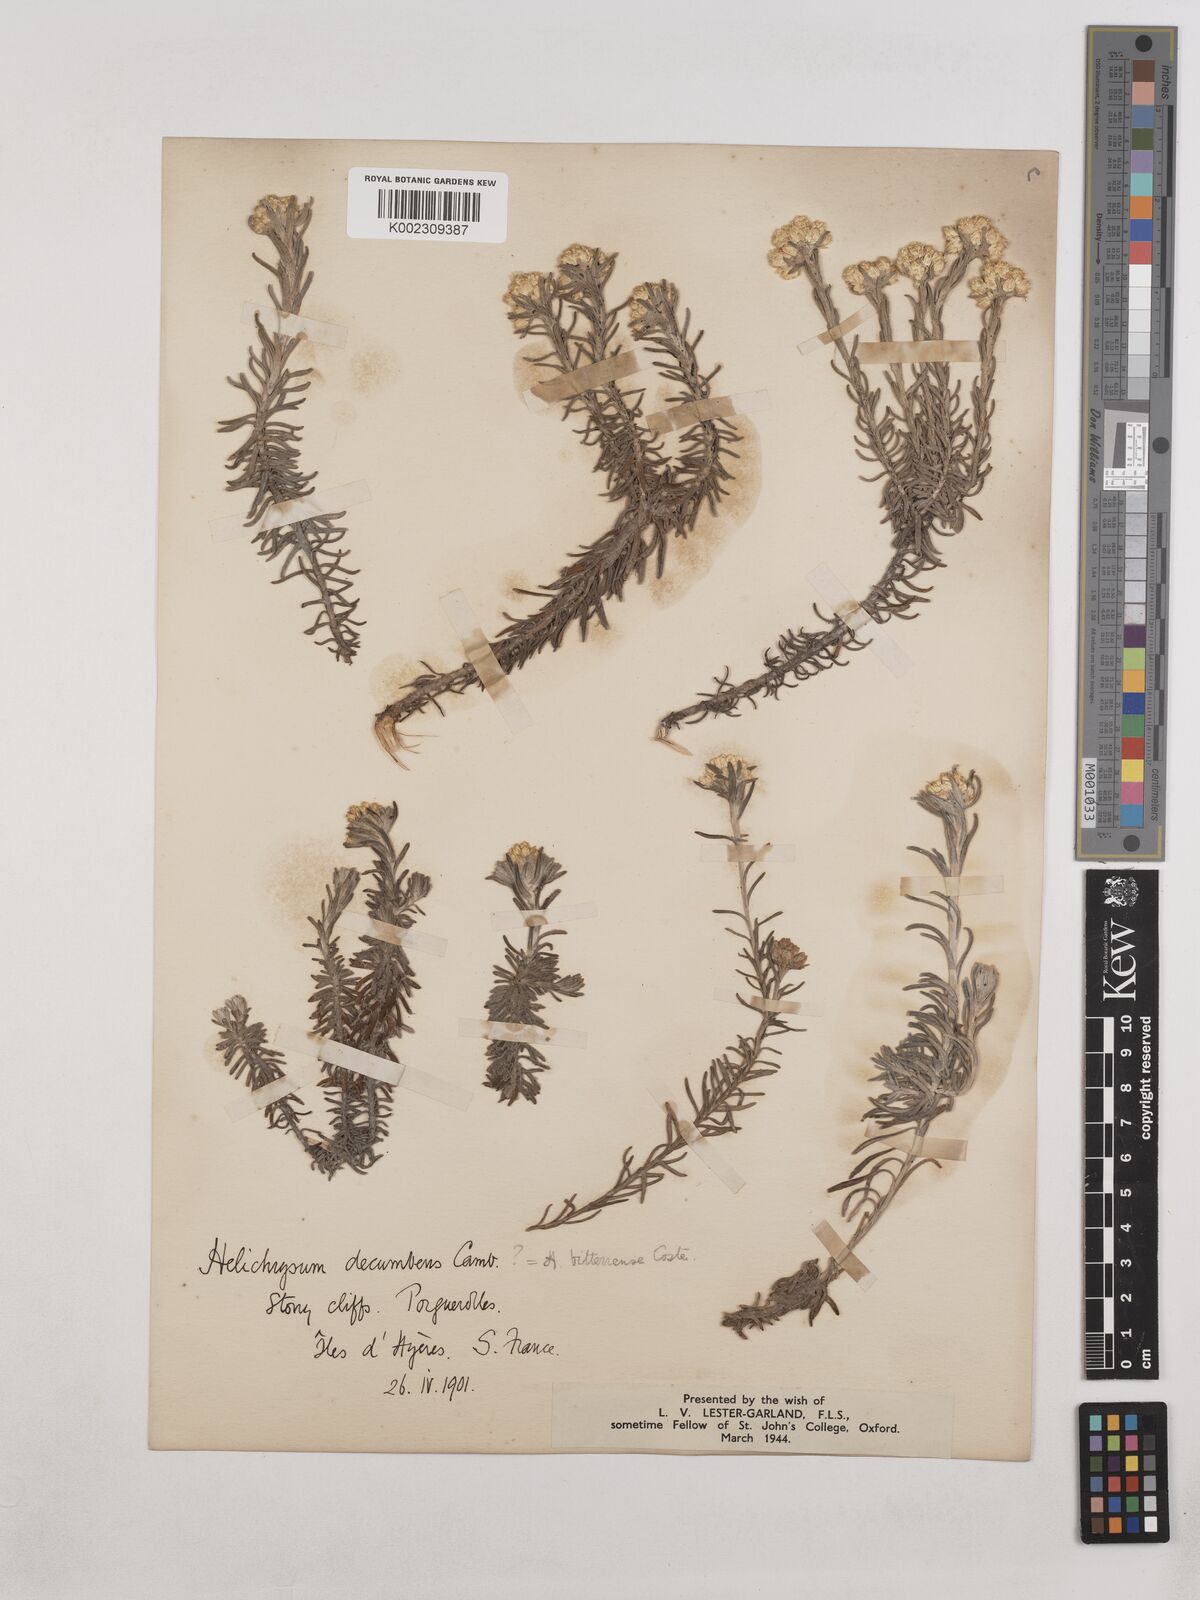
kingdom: Plantae
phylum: Tracheophyta
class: Magnoliopsida
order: Asterales
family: Asteraceae
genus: Helichrysum
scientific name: Helichrysum stoechas
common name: Goldilocks
